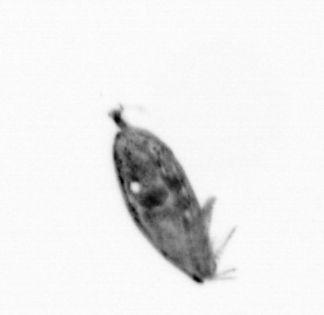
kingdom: Animalia
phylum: Arthropoda
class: Maxillopoda
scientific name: Maxillopoda
